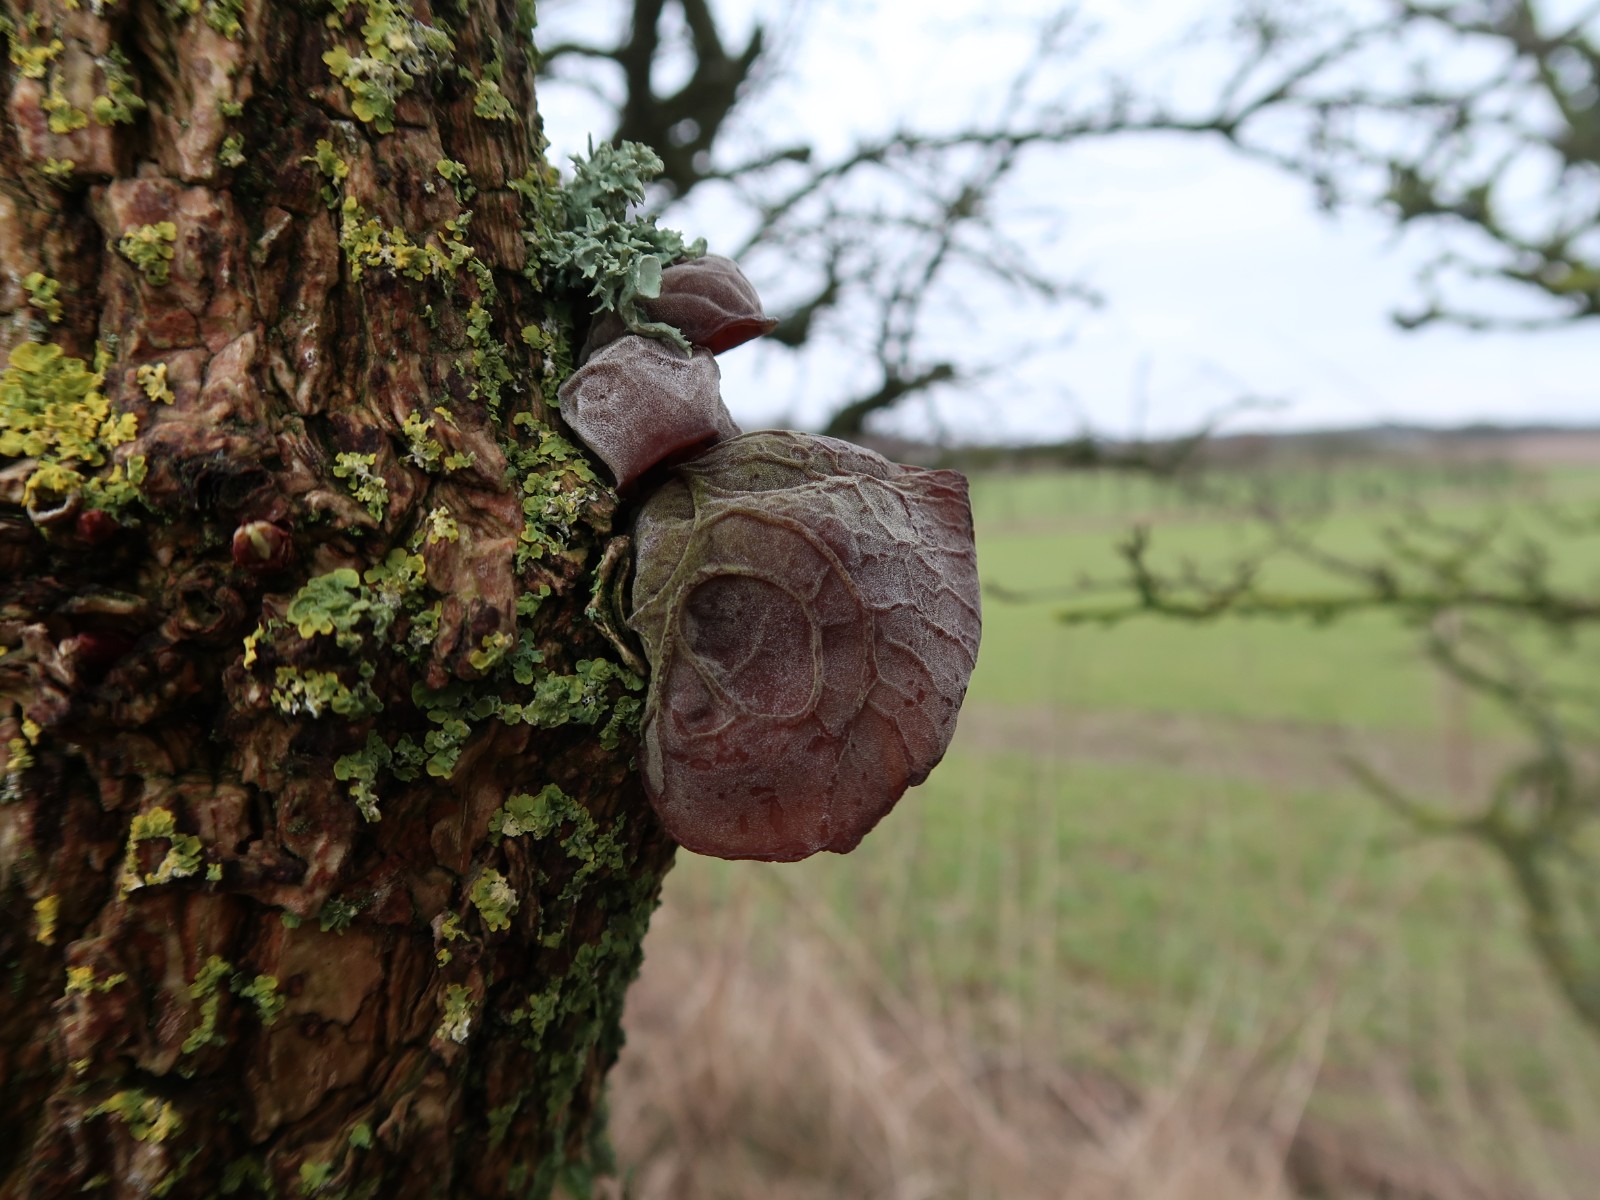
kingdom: Fungi
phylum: Basidiomycota
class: Agaricomycetes
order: Auriculariales
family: Auriculariaceae
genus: Auricularia
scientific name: Auricularia auricula-judae
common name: almindelig judasøre
